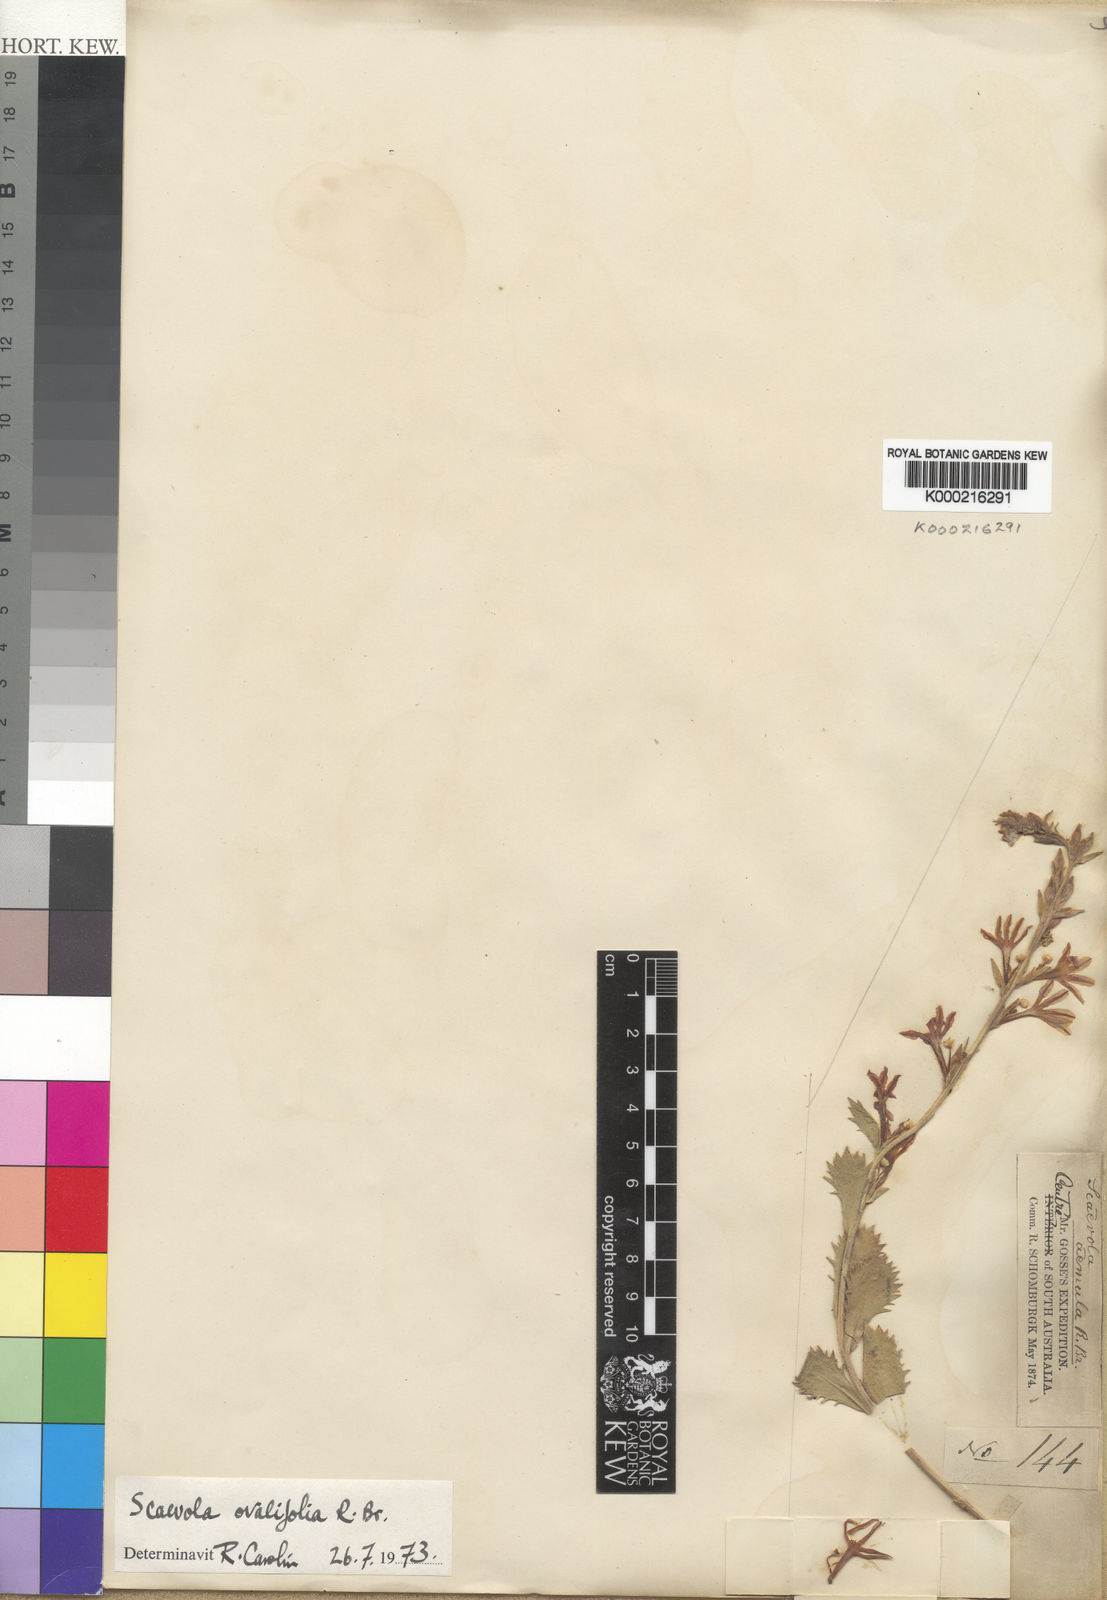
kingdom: Plantae
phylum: Tracheophyta
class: Magnoliopsida
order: Asterales
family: Goodeniaceae
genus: Scaevola
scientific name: Scaevola ovalifolia
